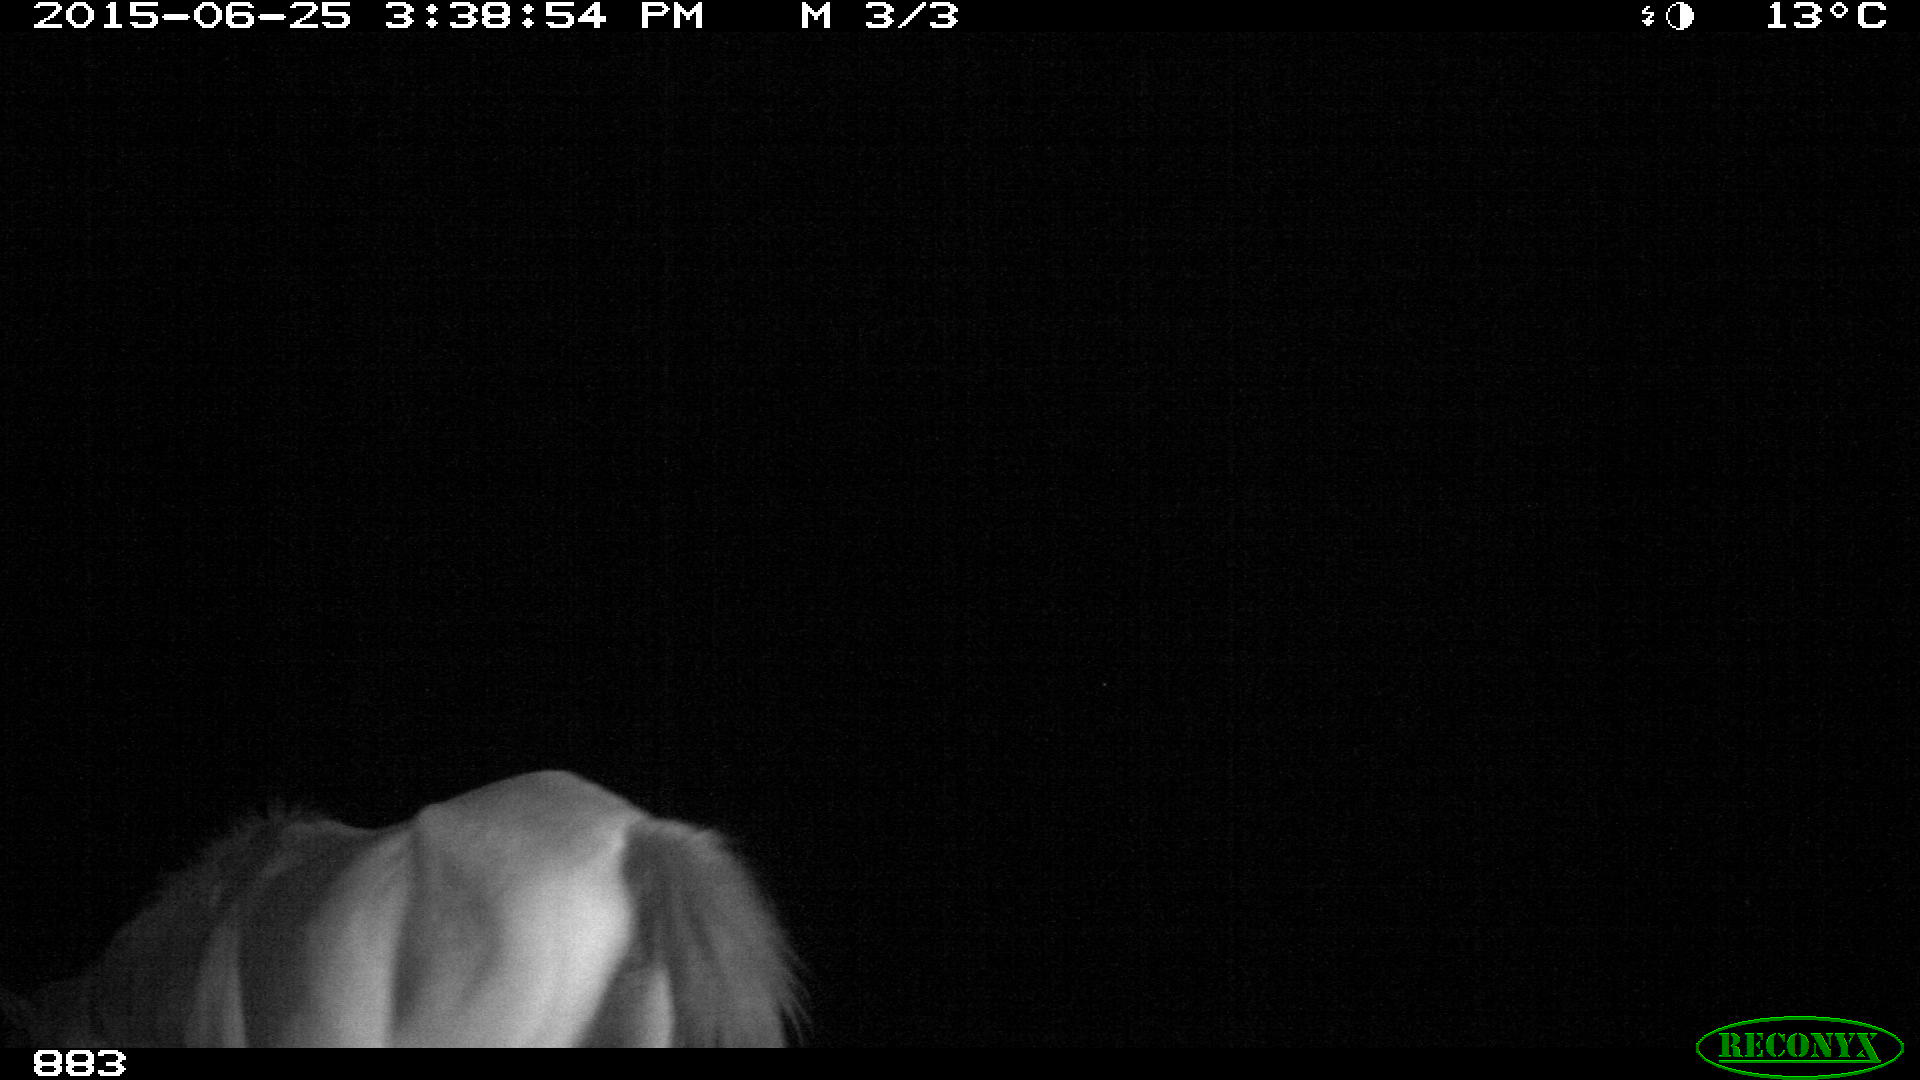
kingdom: Animalia
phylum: Chordata
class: Mammalia
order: Perissodactyla
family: Equidae
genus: Equus
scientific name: Equus caballus
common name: Horse
